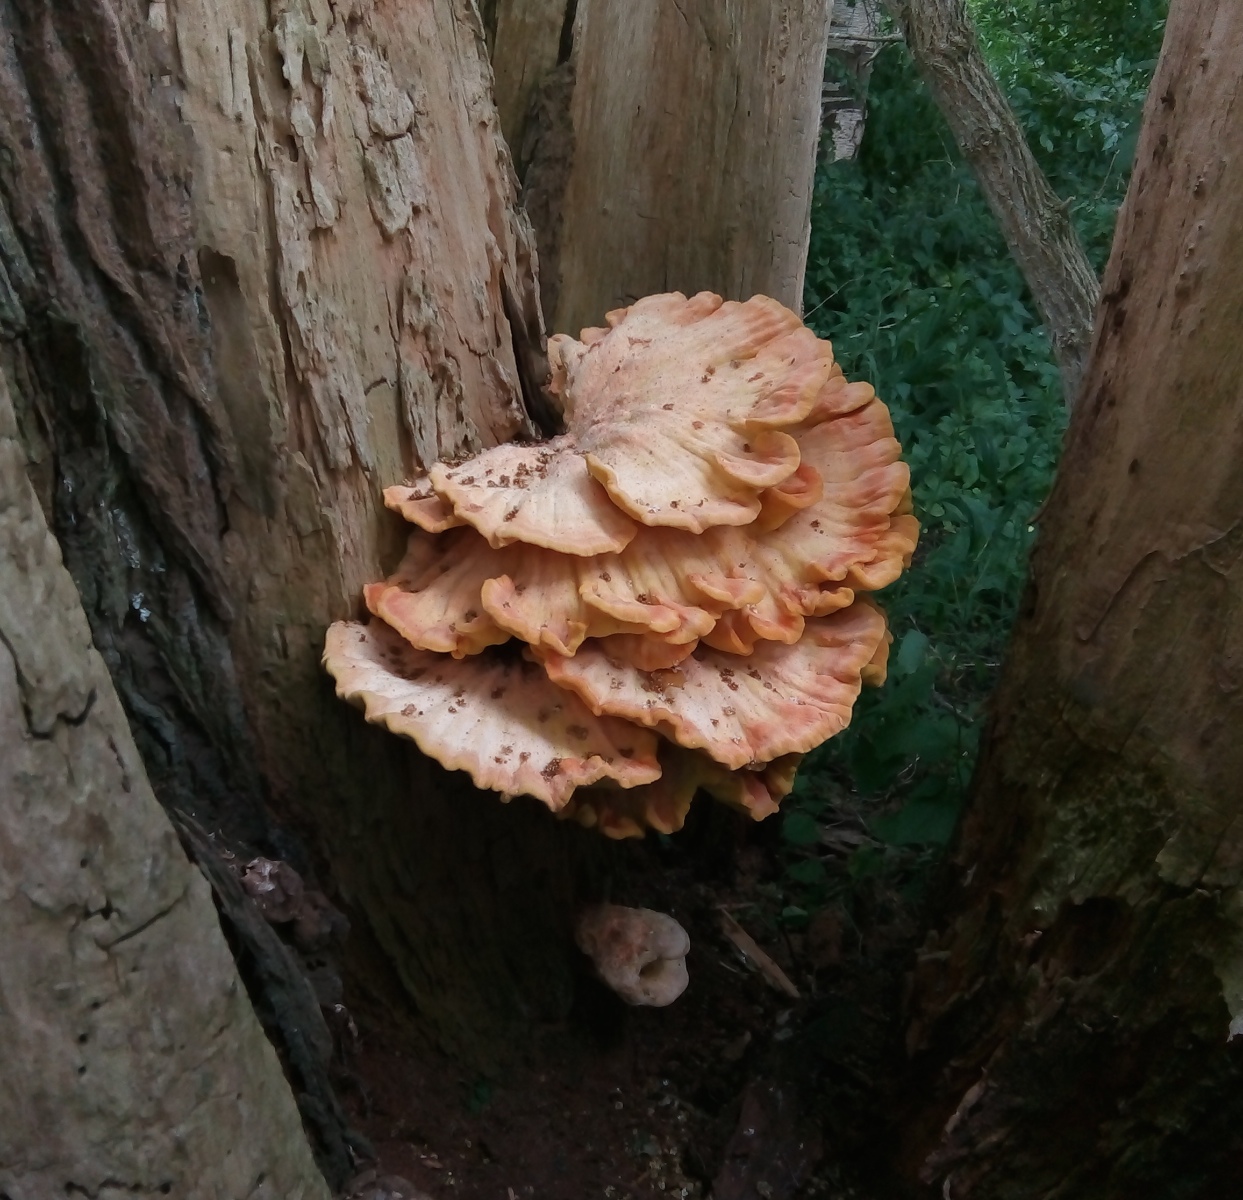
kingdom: Fungi
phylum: Basidiomycota
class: Agaricomycetes
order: Polyporales
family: Laetiporaceae
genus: Laetiporus
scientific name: Laetiporus sulphureus
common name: svovlporesvamp
